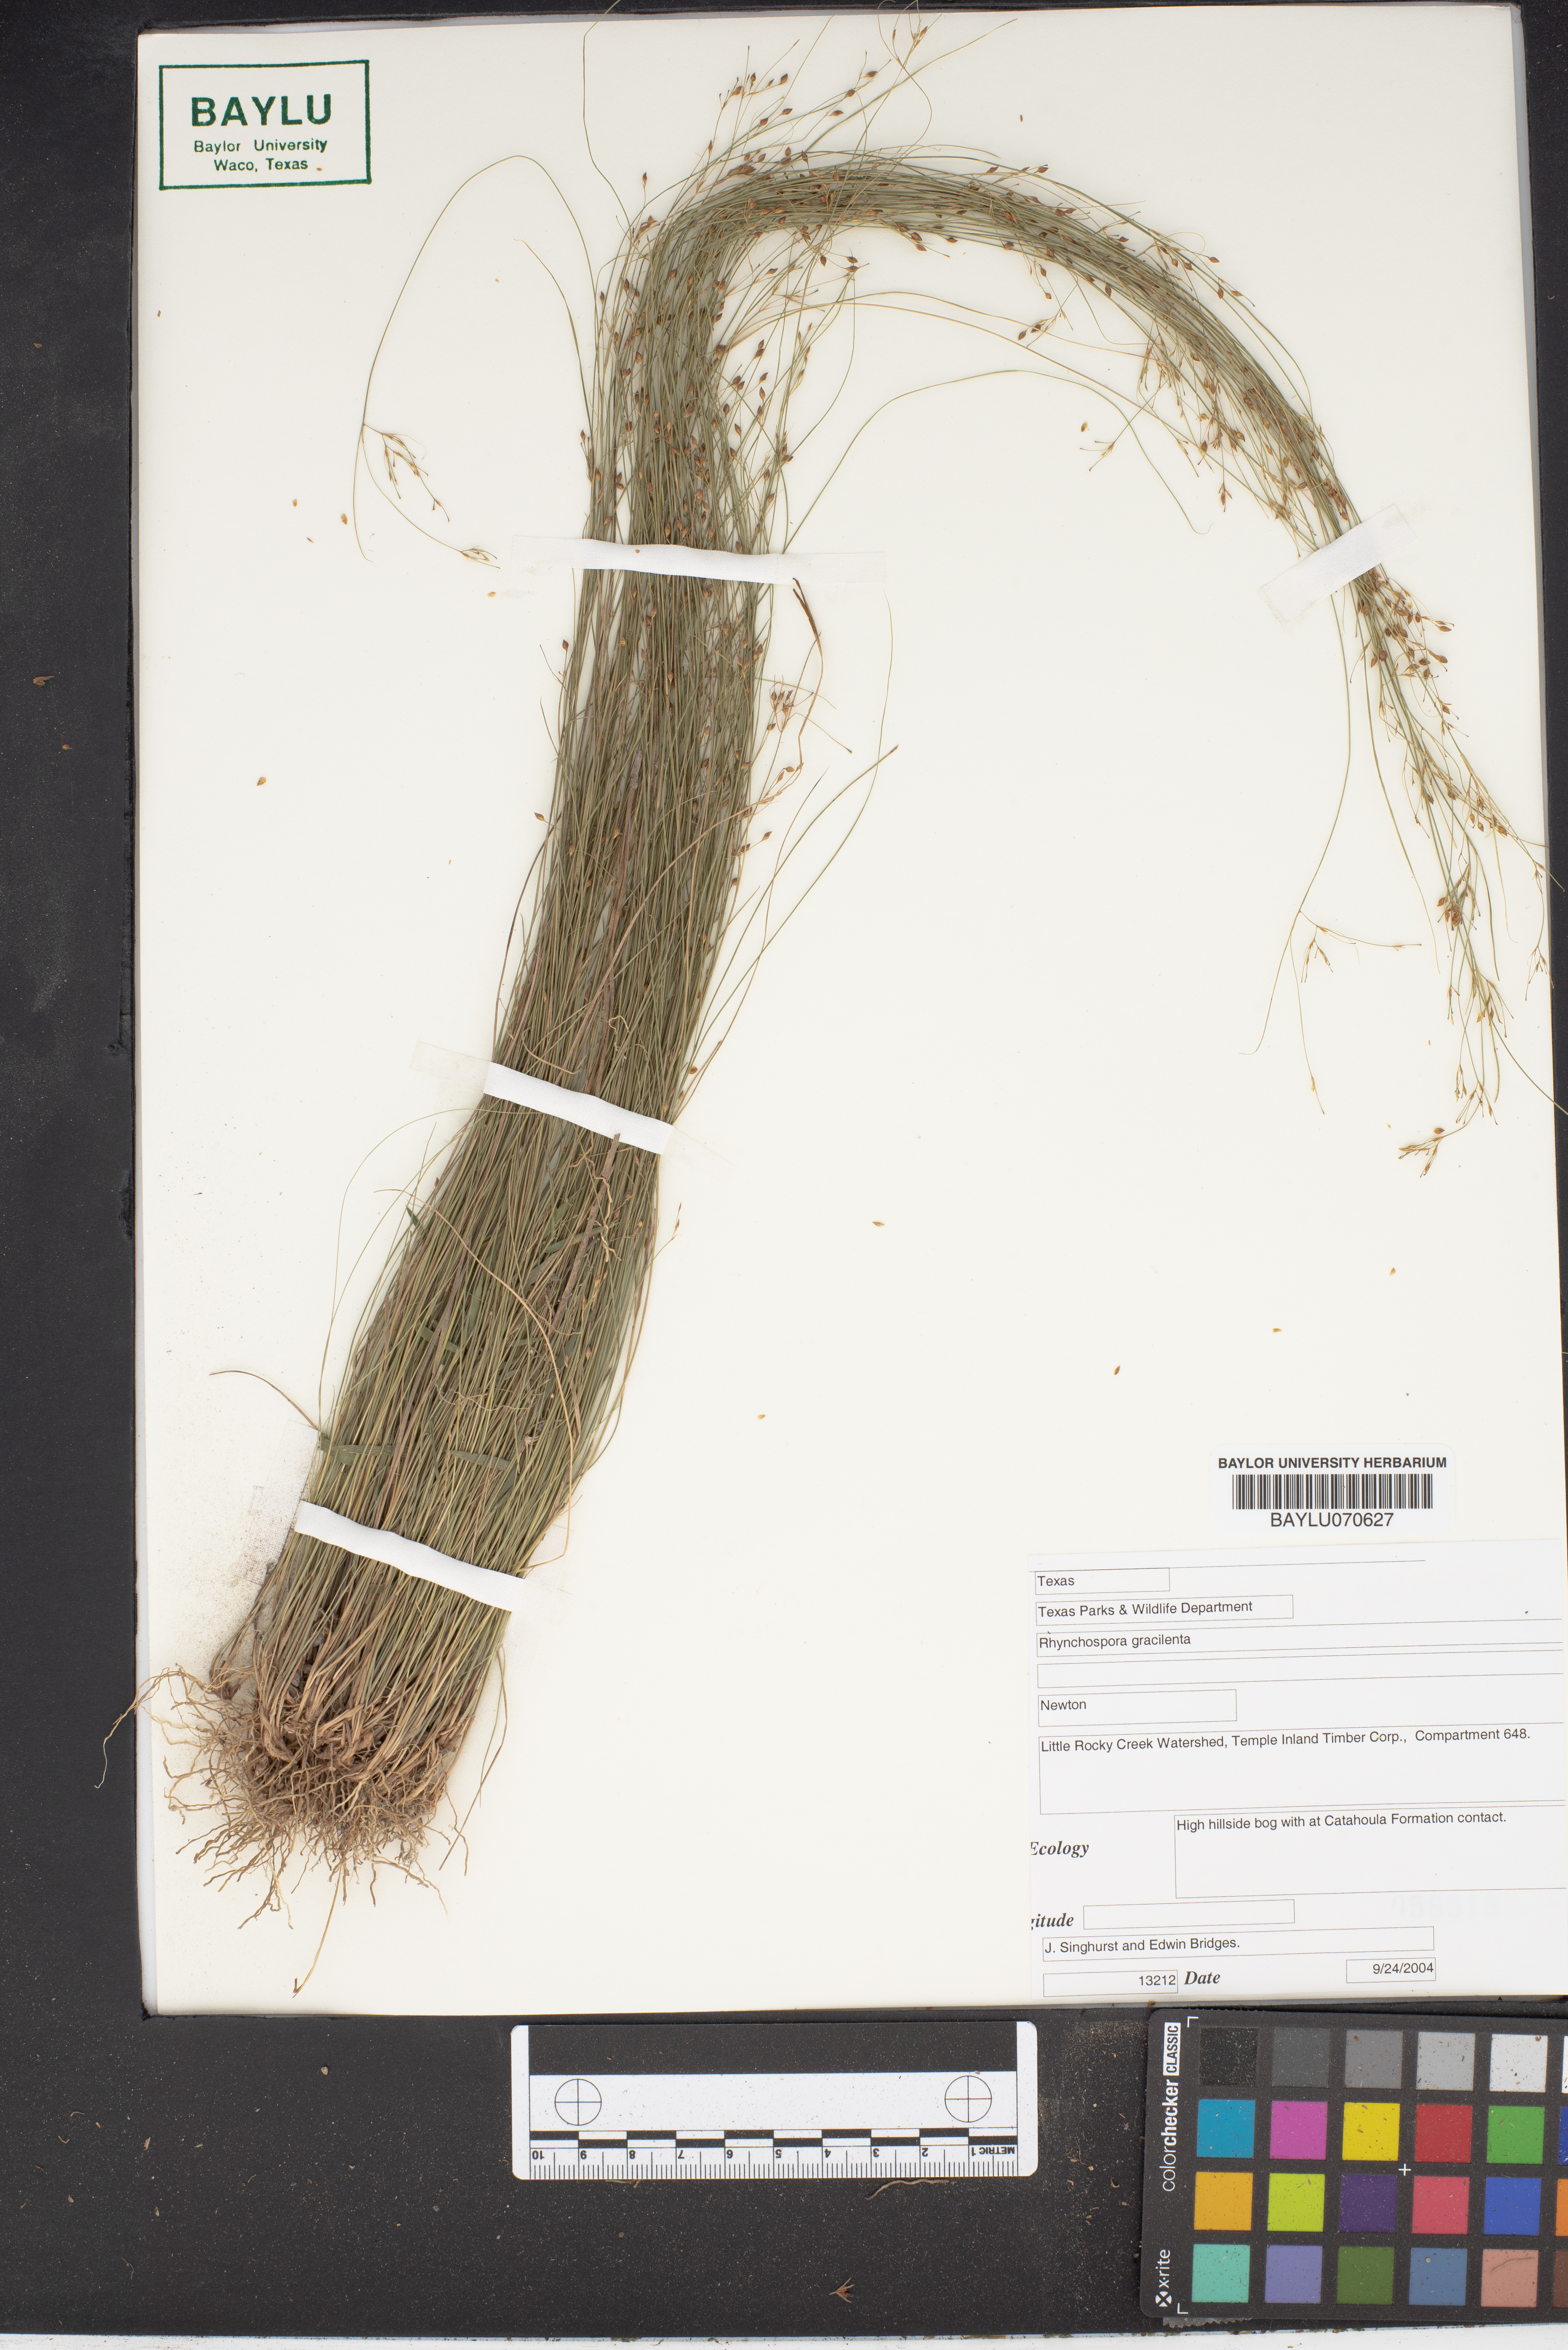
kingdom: Plantae
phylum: Tracheophyta
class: Liliopsida
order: Poales
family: Cyperaceae
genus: Rhynchospora
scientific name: Rhynchospora gracilenta
